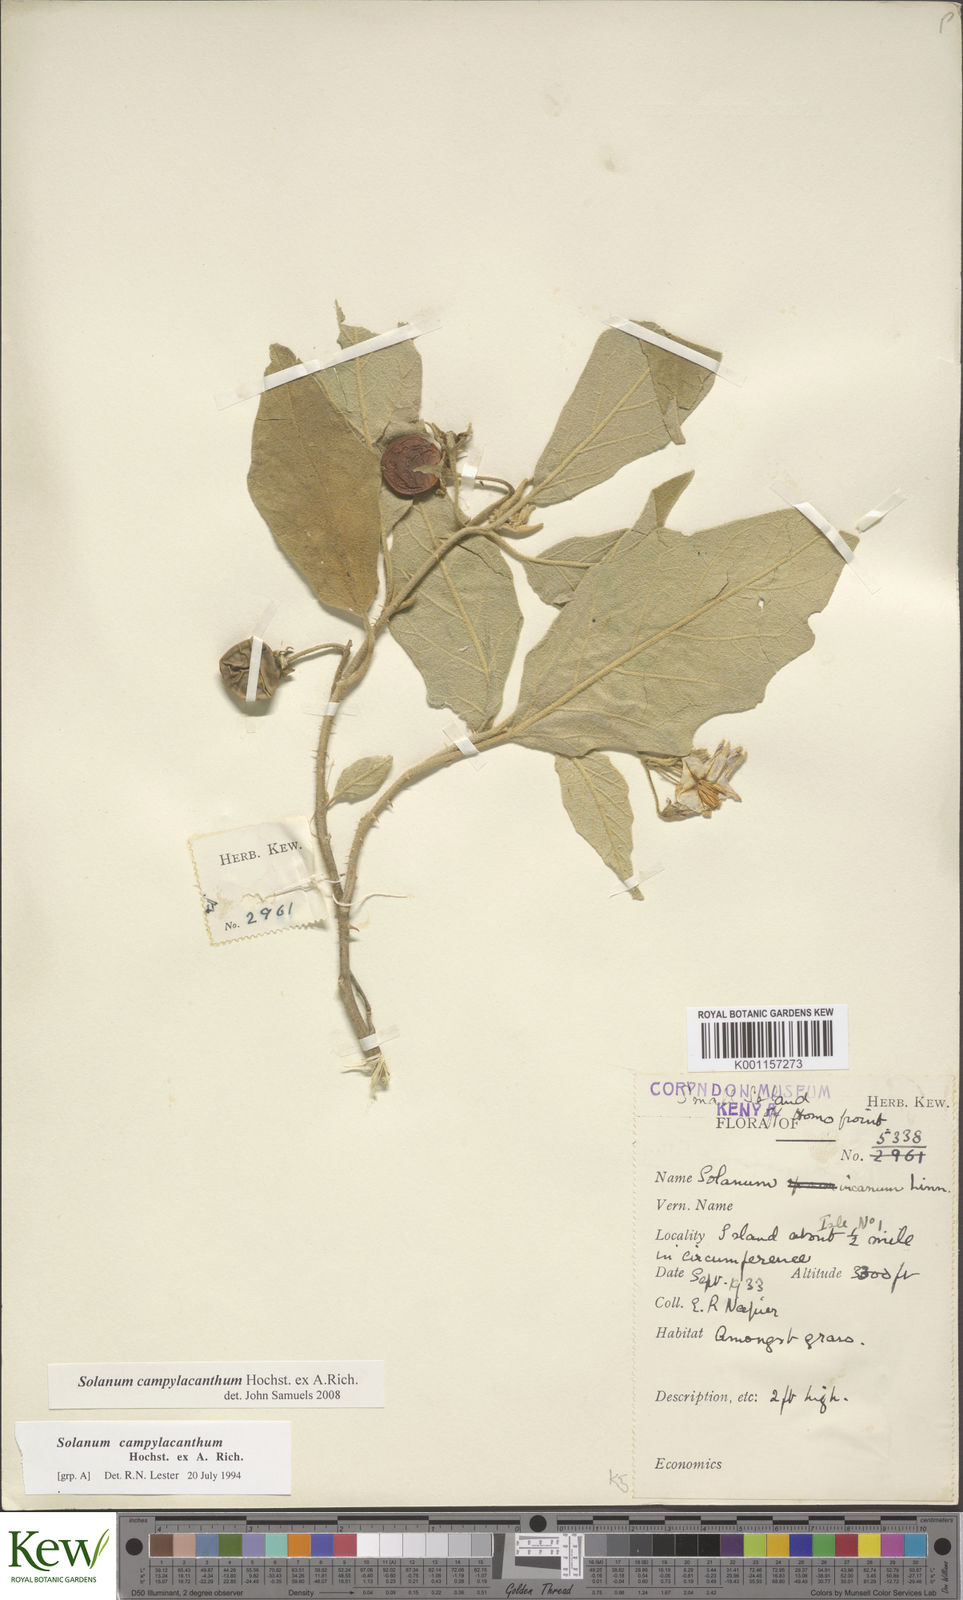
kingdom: Plantae
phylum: Tracheophyta
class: Magnoliopsida
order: Solanales
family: Solanaceae
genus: Solanum
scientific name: Solanum campylacanthum
